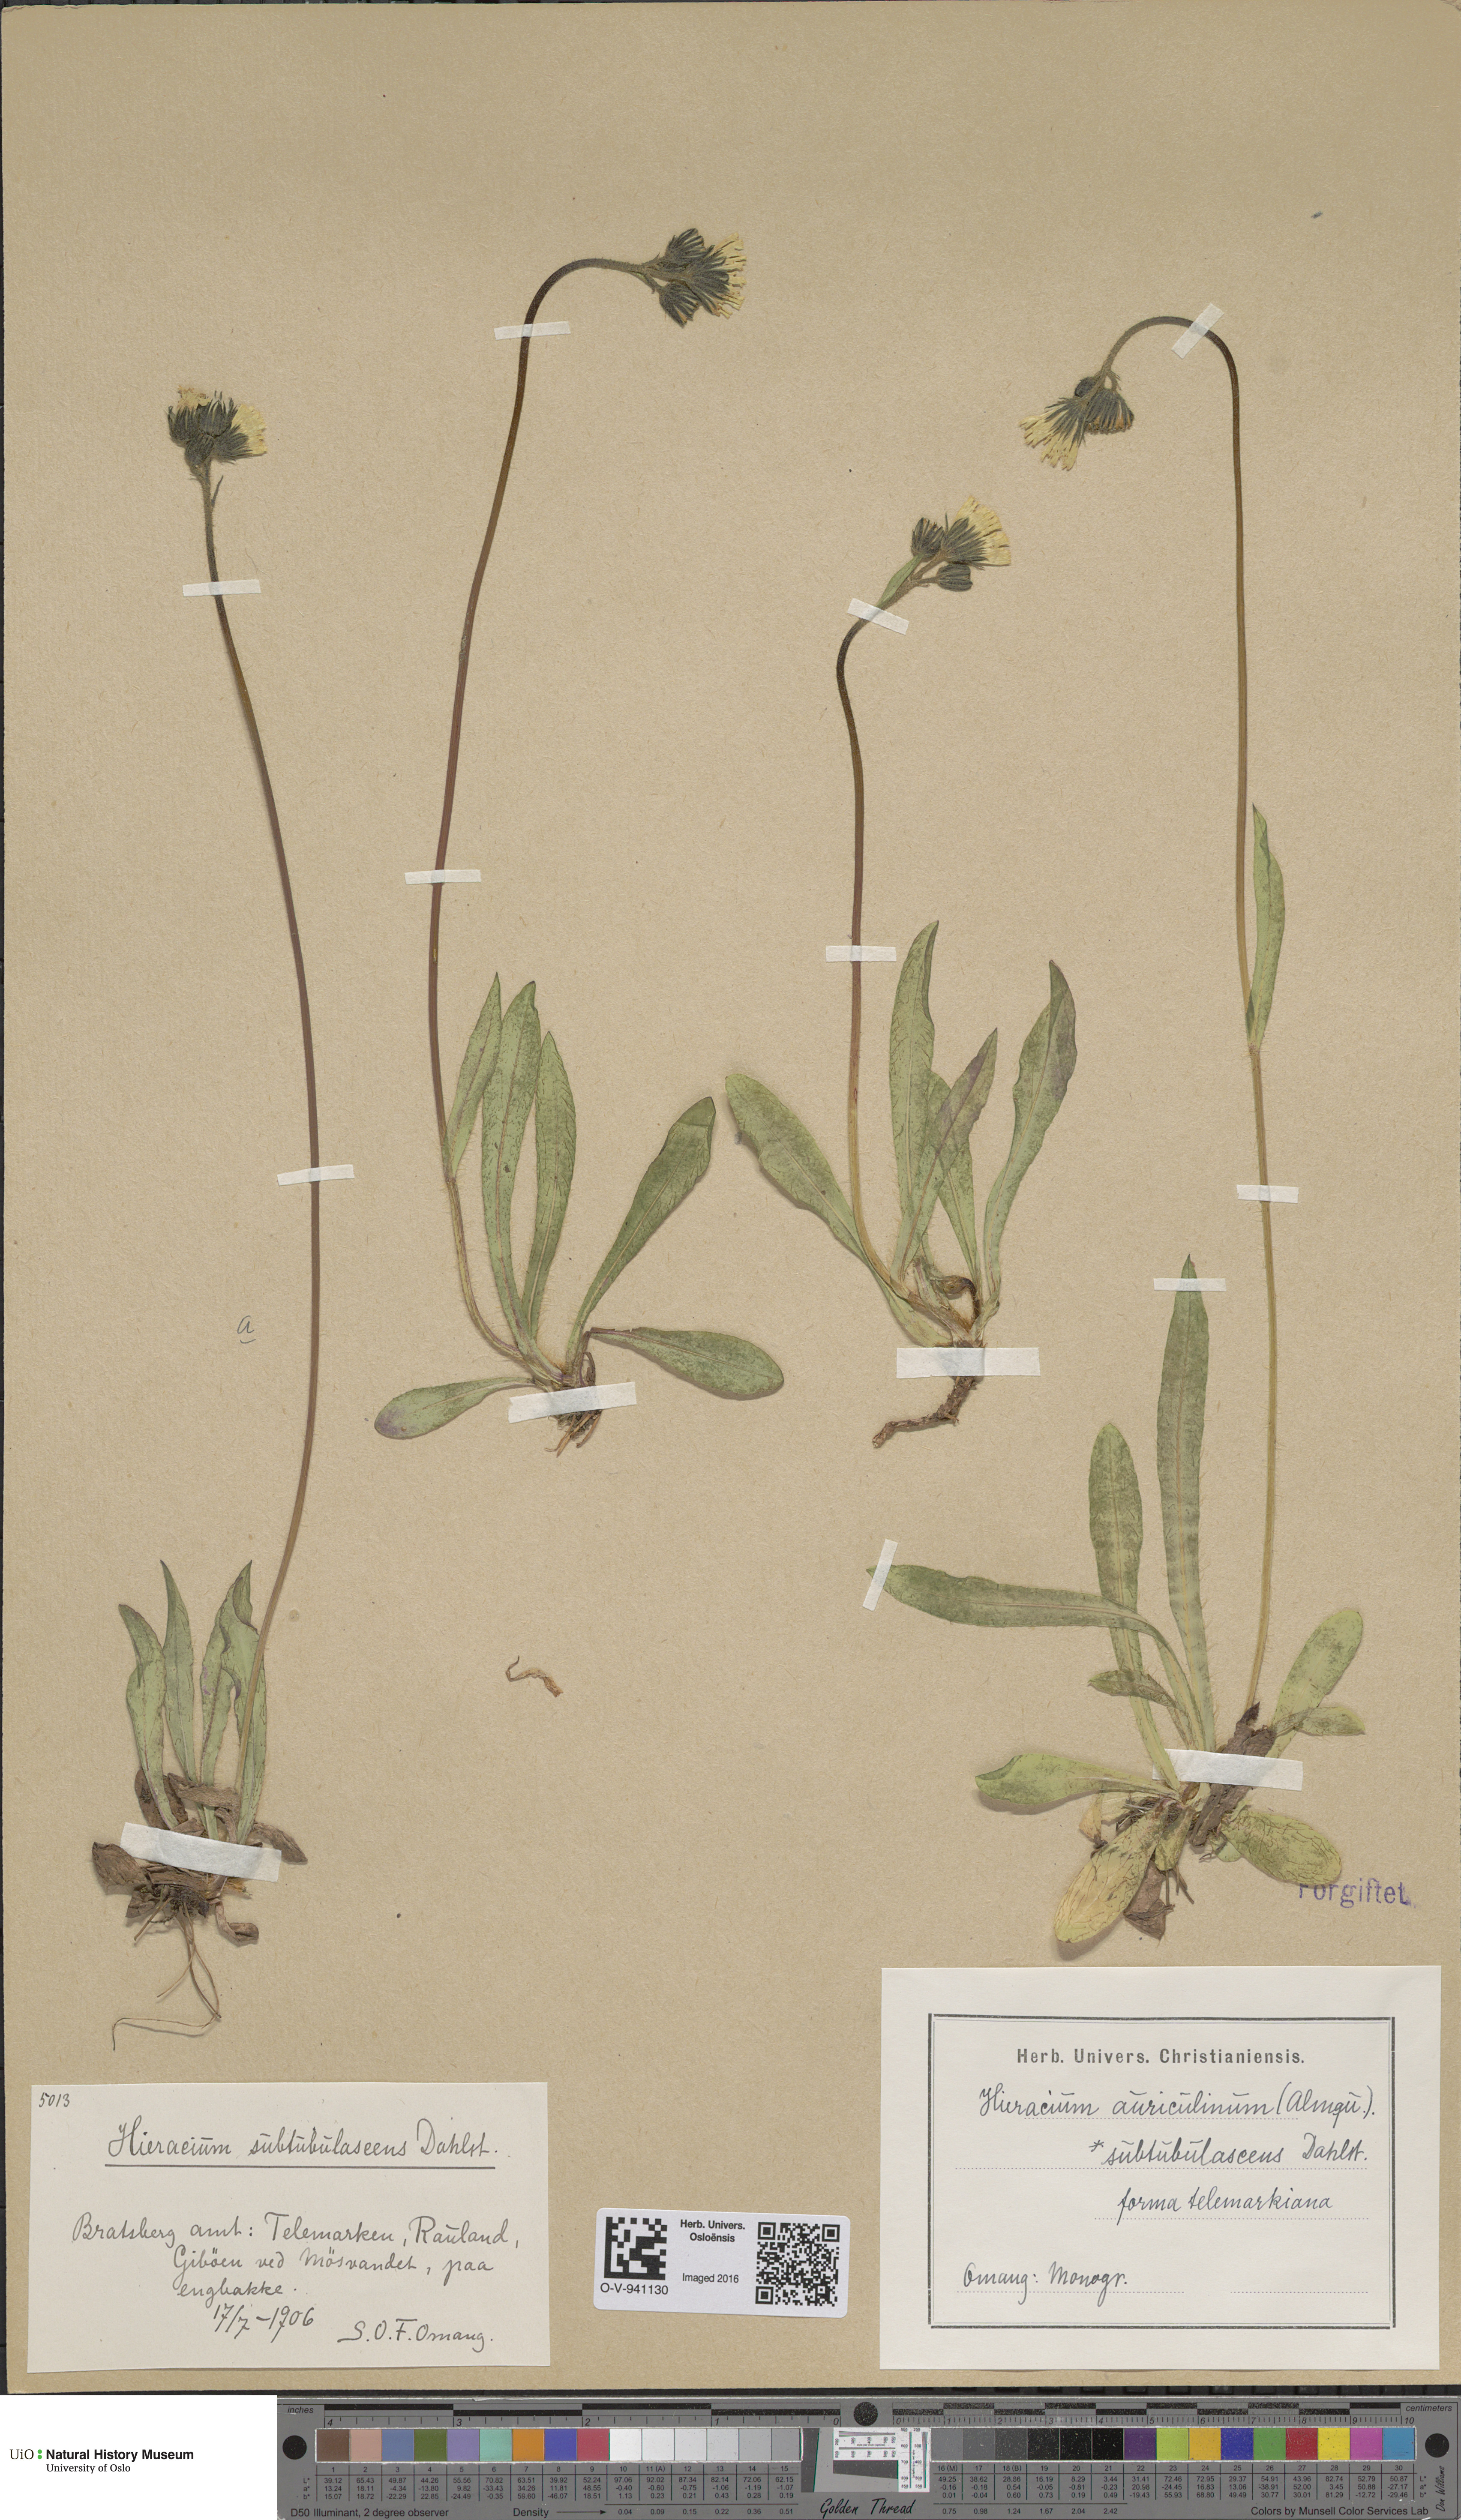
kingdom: Plantae
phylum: Tracheophyta
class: Magnoliopsida
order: Asterales
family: Asteraceae
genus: Pilosella
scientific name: Pilosella dubia
